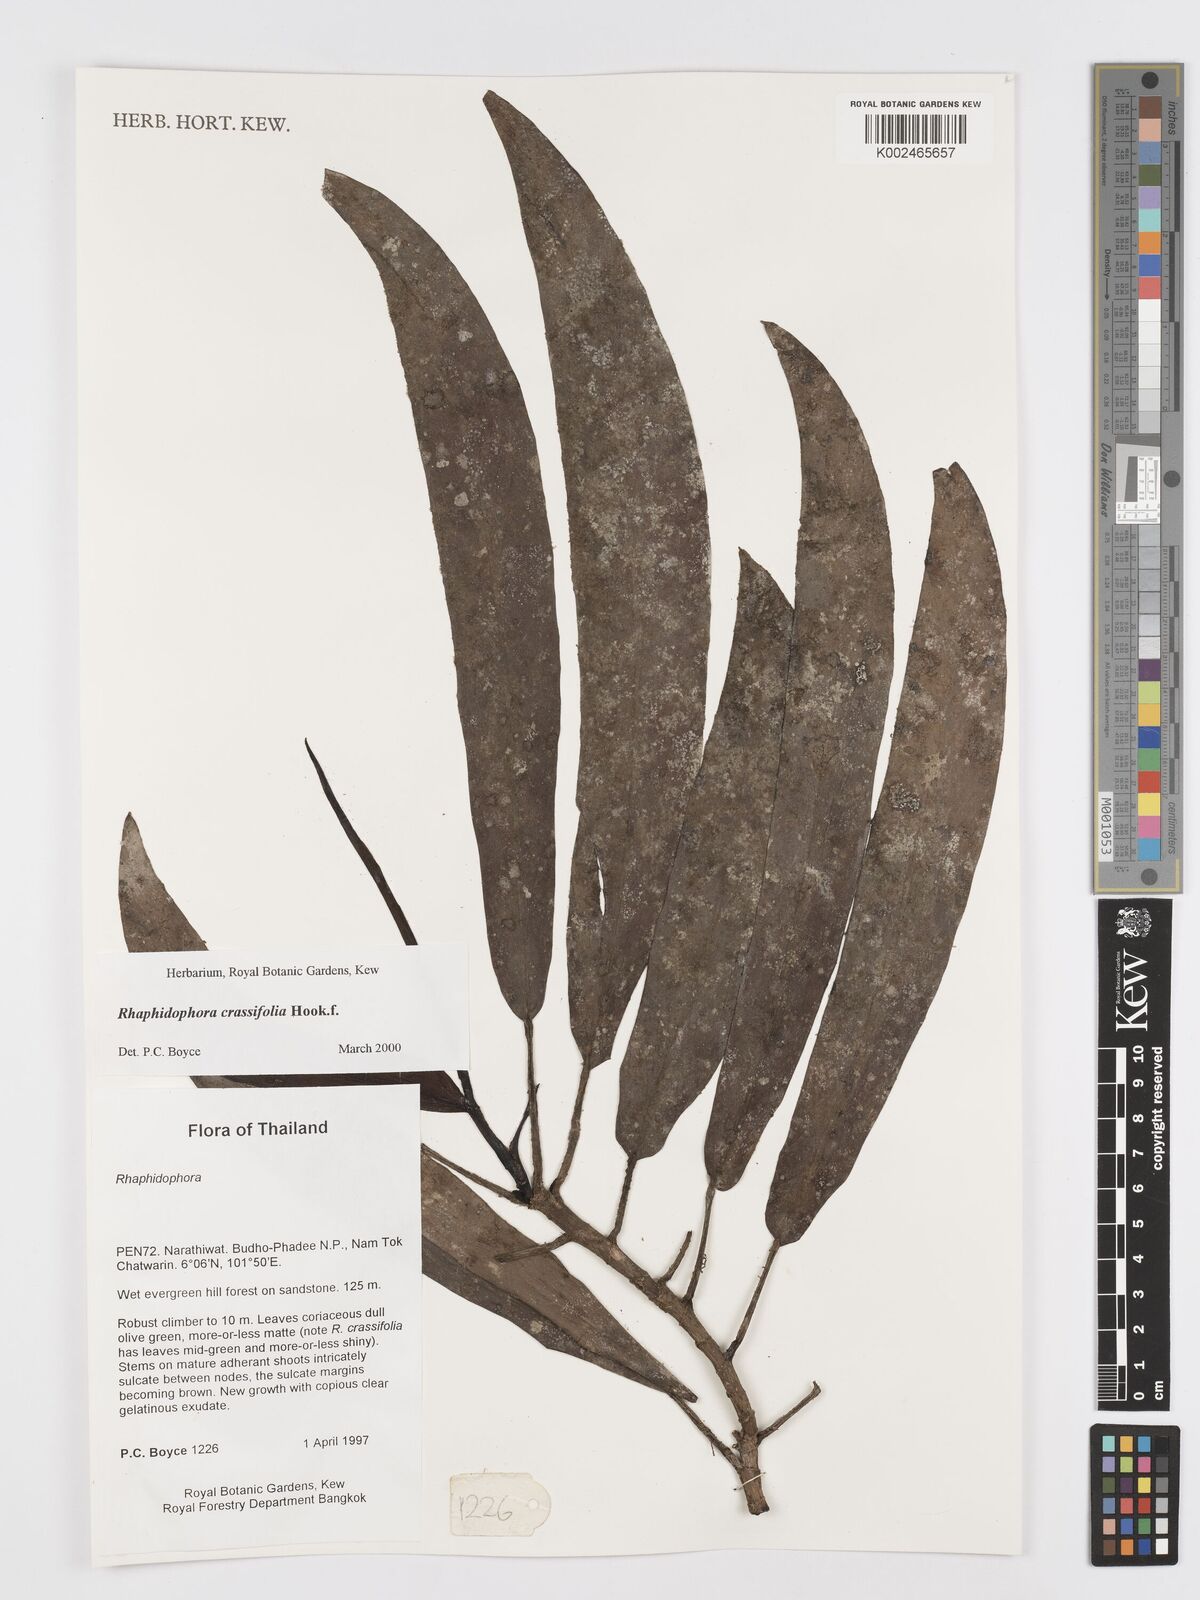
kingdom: Plantae
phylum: Tracheophyta
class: Liliopsida
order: Alismatales
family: Araceae
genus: Rhaphidophora
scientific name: Rhaphidophora crassifolia
